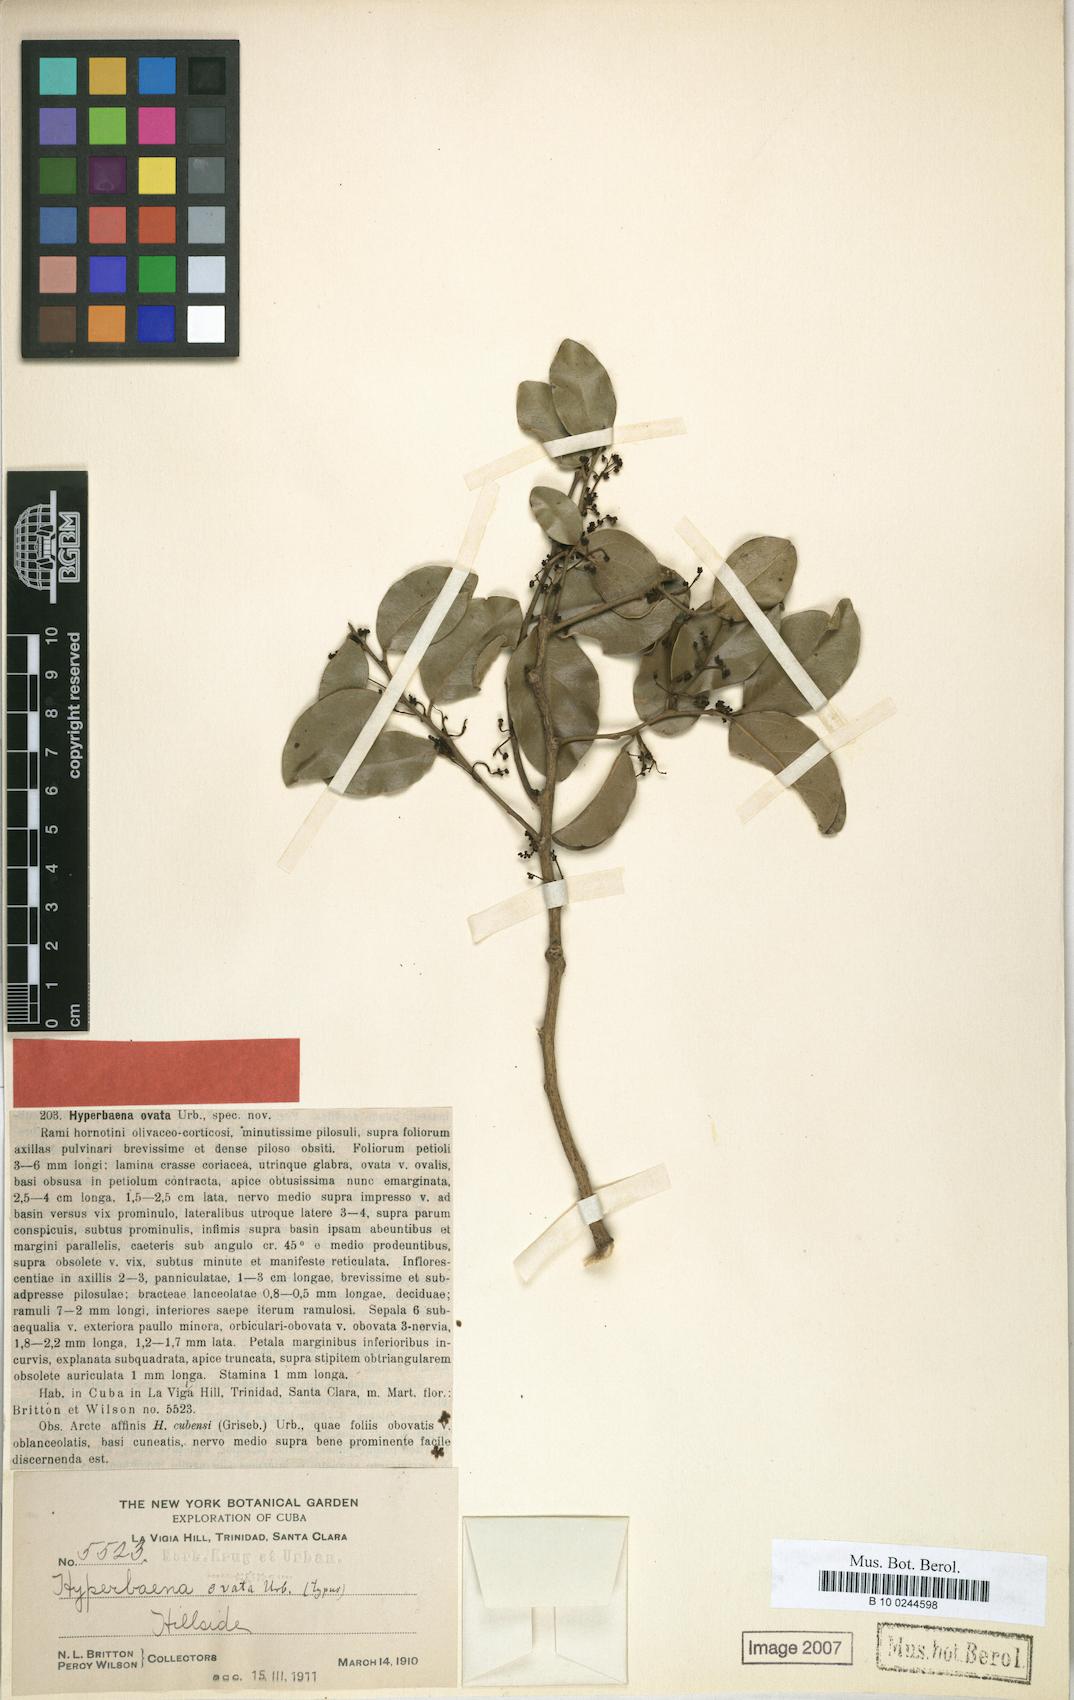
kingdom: Plantae
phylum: Tracheophyta
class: Magnoliopsida
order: Ranunculales
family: Menispermaceae
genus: Hyperbaena
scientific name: Hyperbaena cubensis
